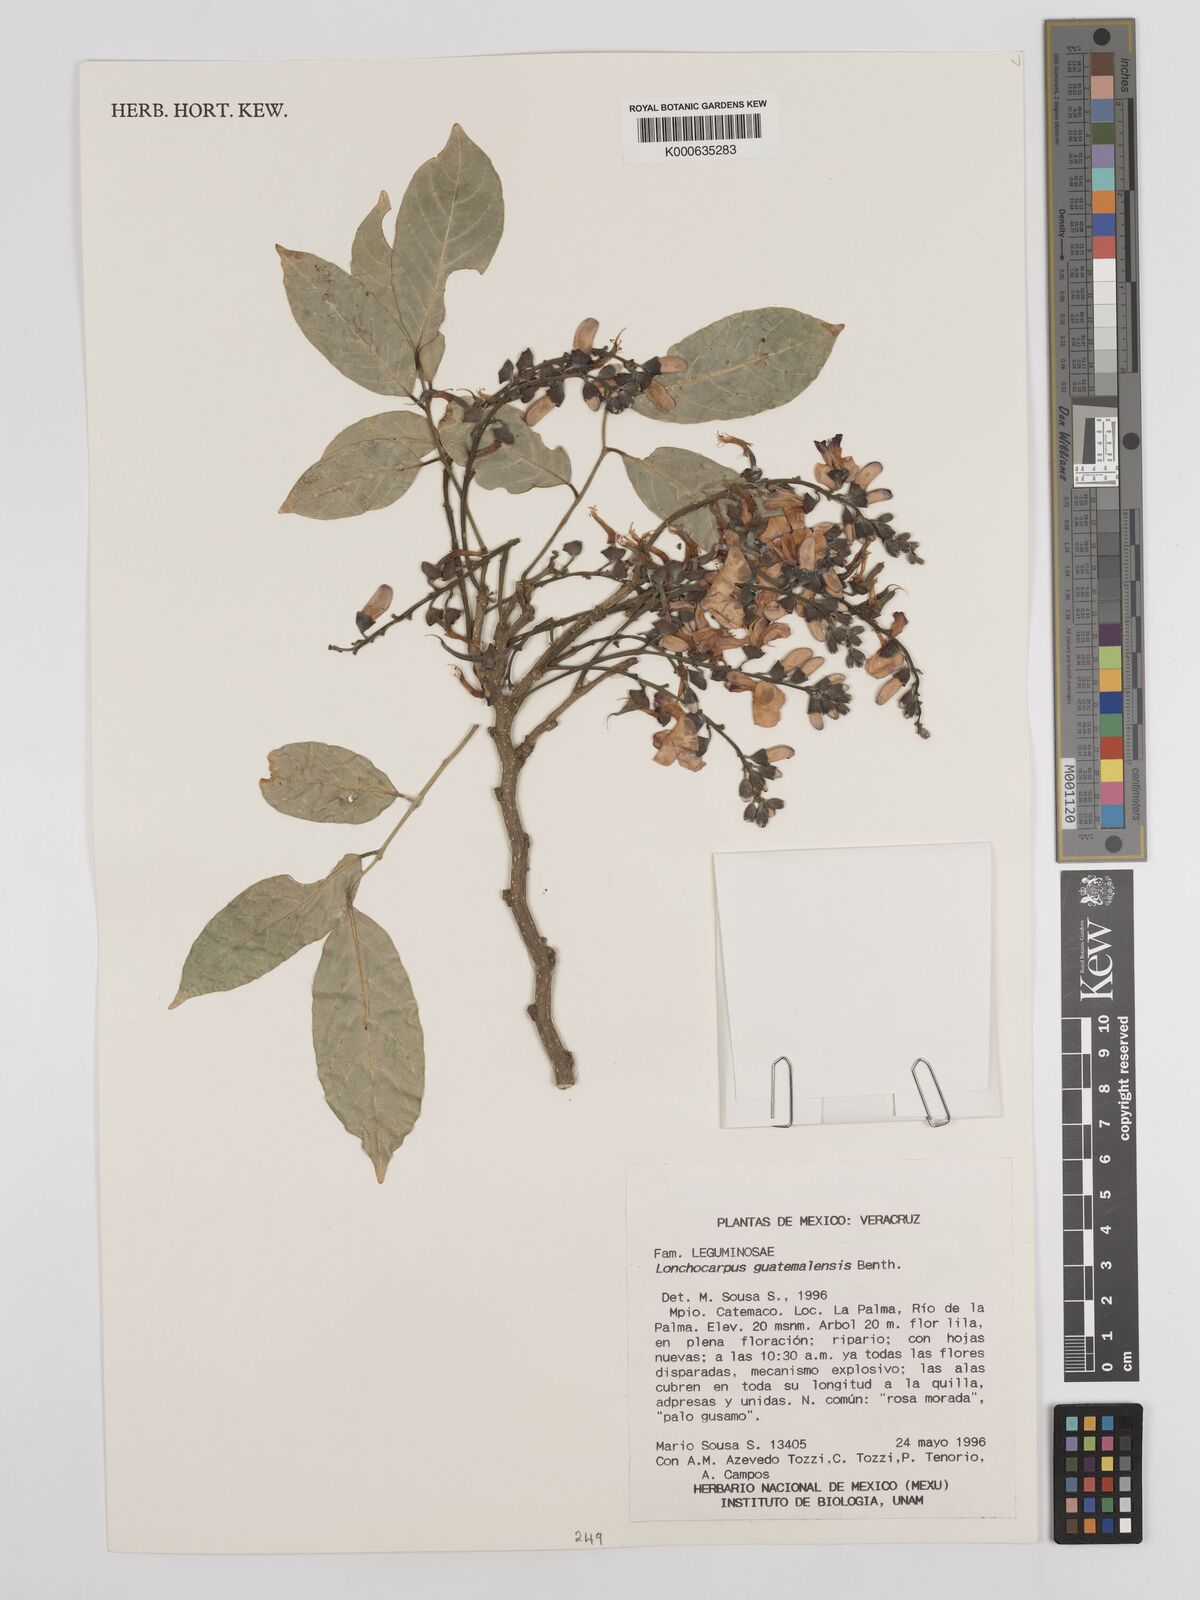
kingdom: Plantae
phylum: Tracheophyta
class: Magnoliopsida
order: Fabales
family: Fabaceae
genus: Lonchocarpus
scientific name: Lonchocarpus guatemalensis
